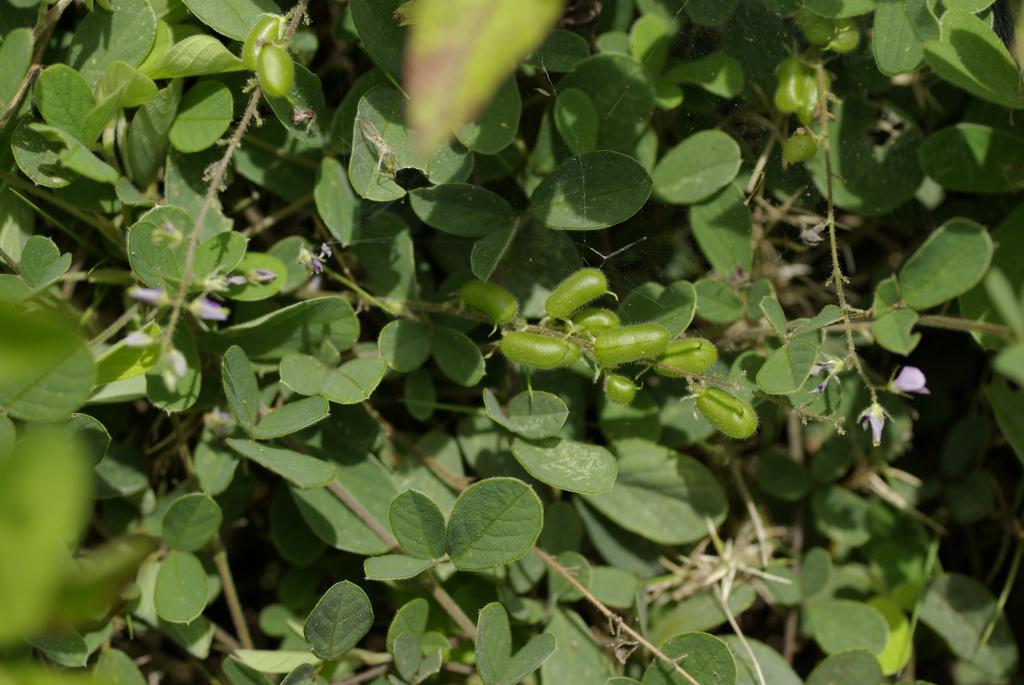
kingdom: Plantae
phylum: Tracheophyta
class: Magnoliopsida
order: Fabales
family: Fabaceae
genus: Pycnospora
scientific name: Pycnospora lutescens
